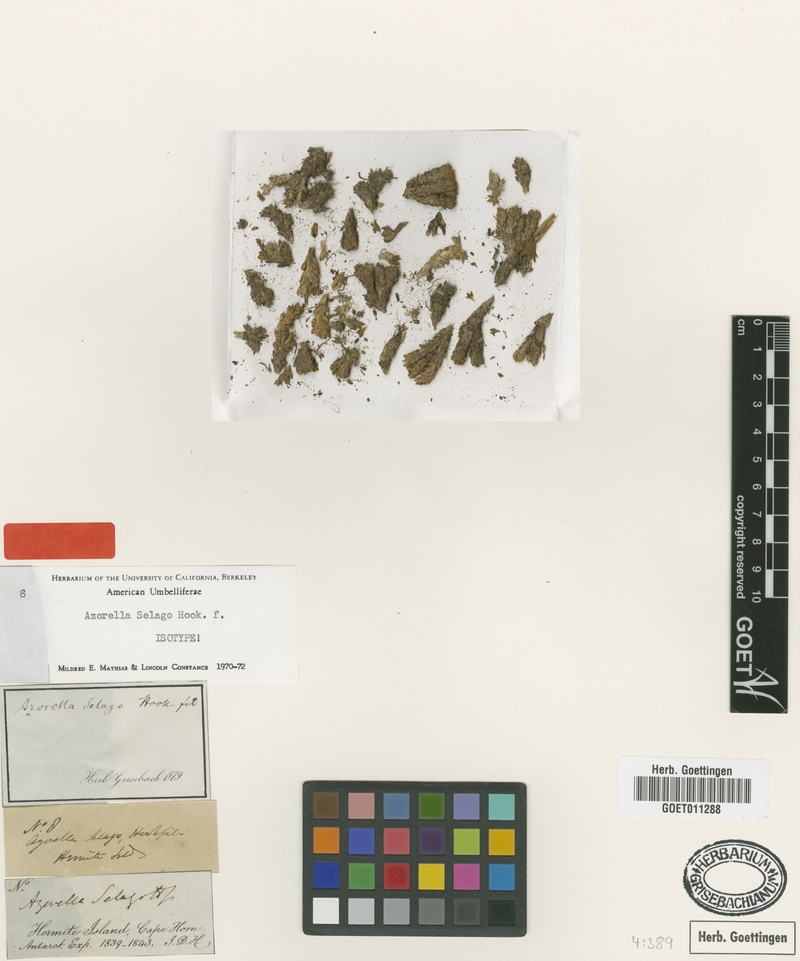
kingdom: Plantae
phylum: Tracheophyta
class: Magnoliopsida
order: Apiales
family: Apiaceae
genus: Azorella
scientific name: Azorella selago
